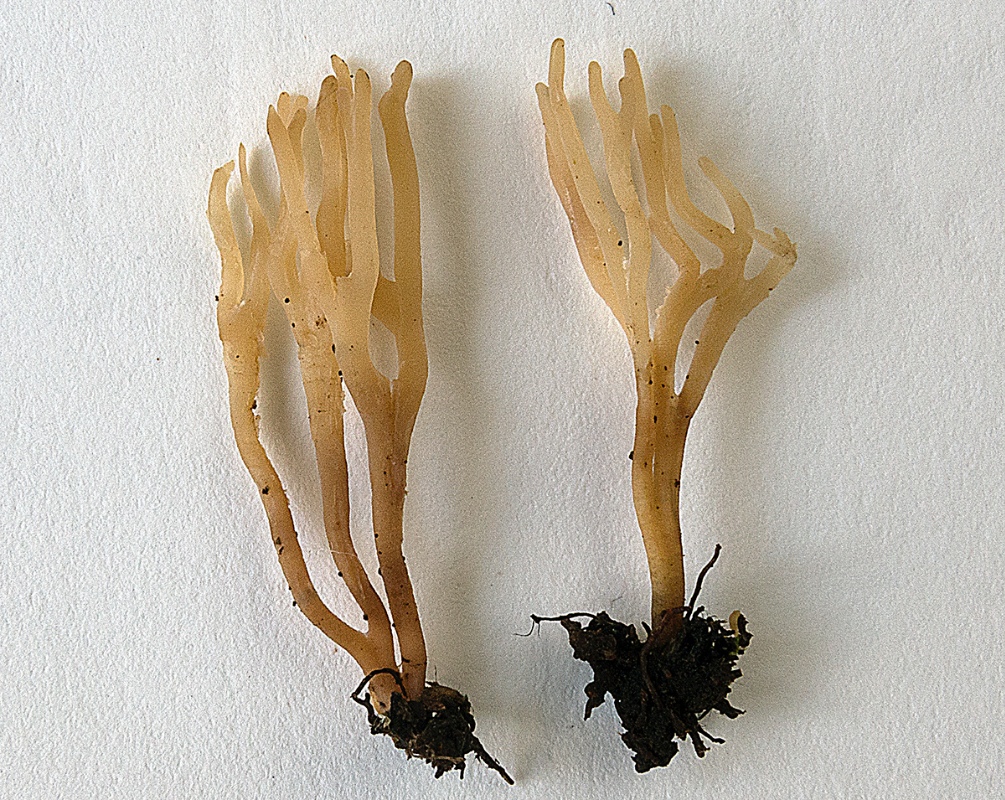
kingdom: Fungi
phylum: Basidiomycota
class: Agaricomycetes
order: Agaricales
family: Clavariaceae
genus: Clavulinopsis
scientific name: Clavulinopsis rufipes
